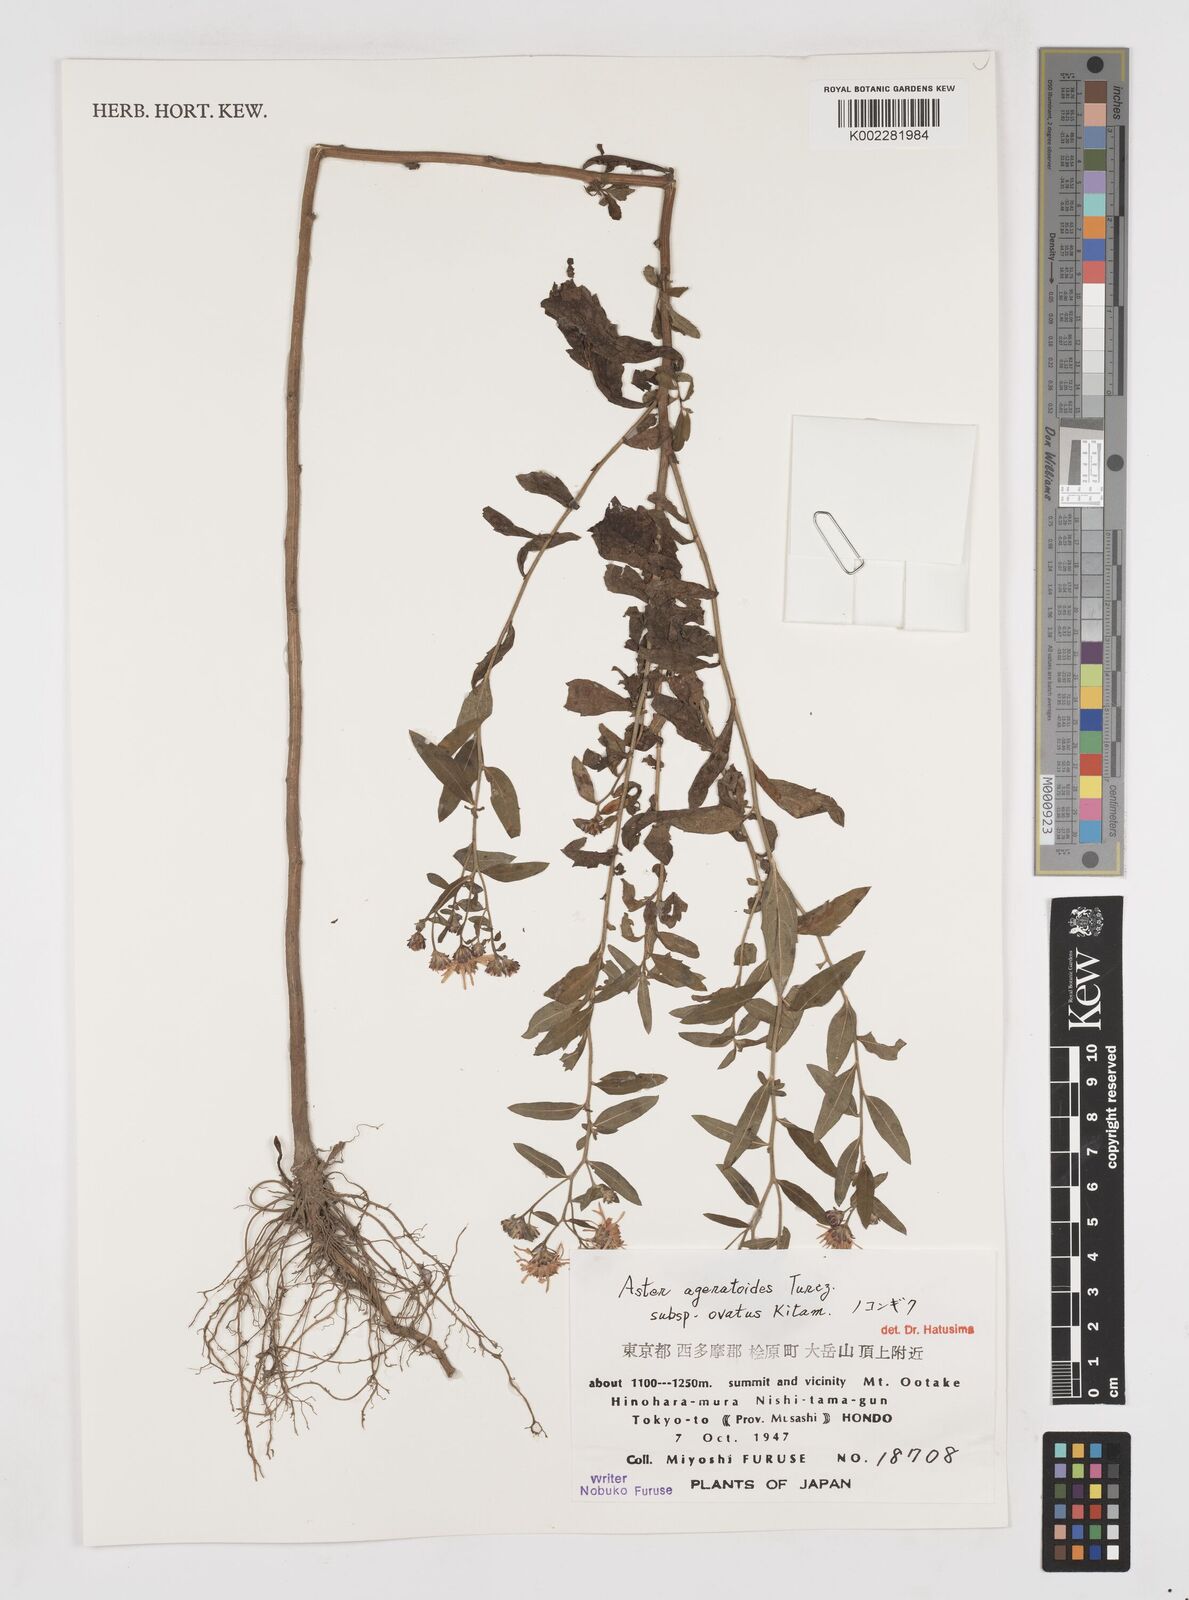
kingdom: Plantae
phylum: Tracheophyta
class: Magnoliopsida
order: Asterales
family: Asteraceae
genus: Aster
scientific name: Aster trinervius
